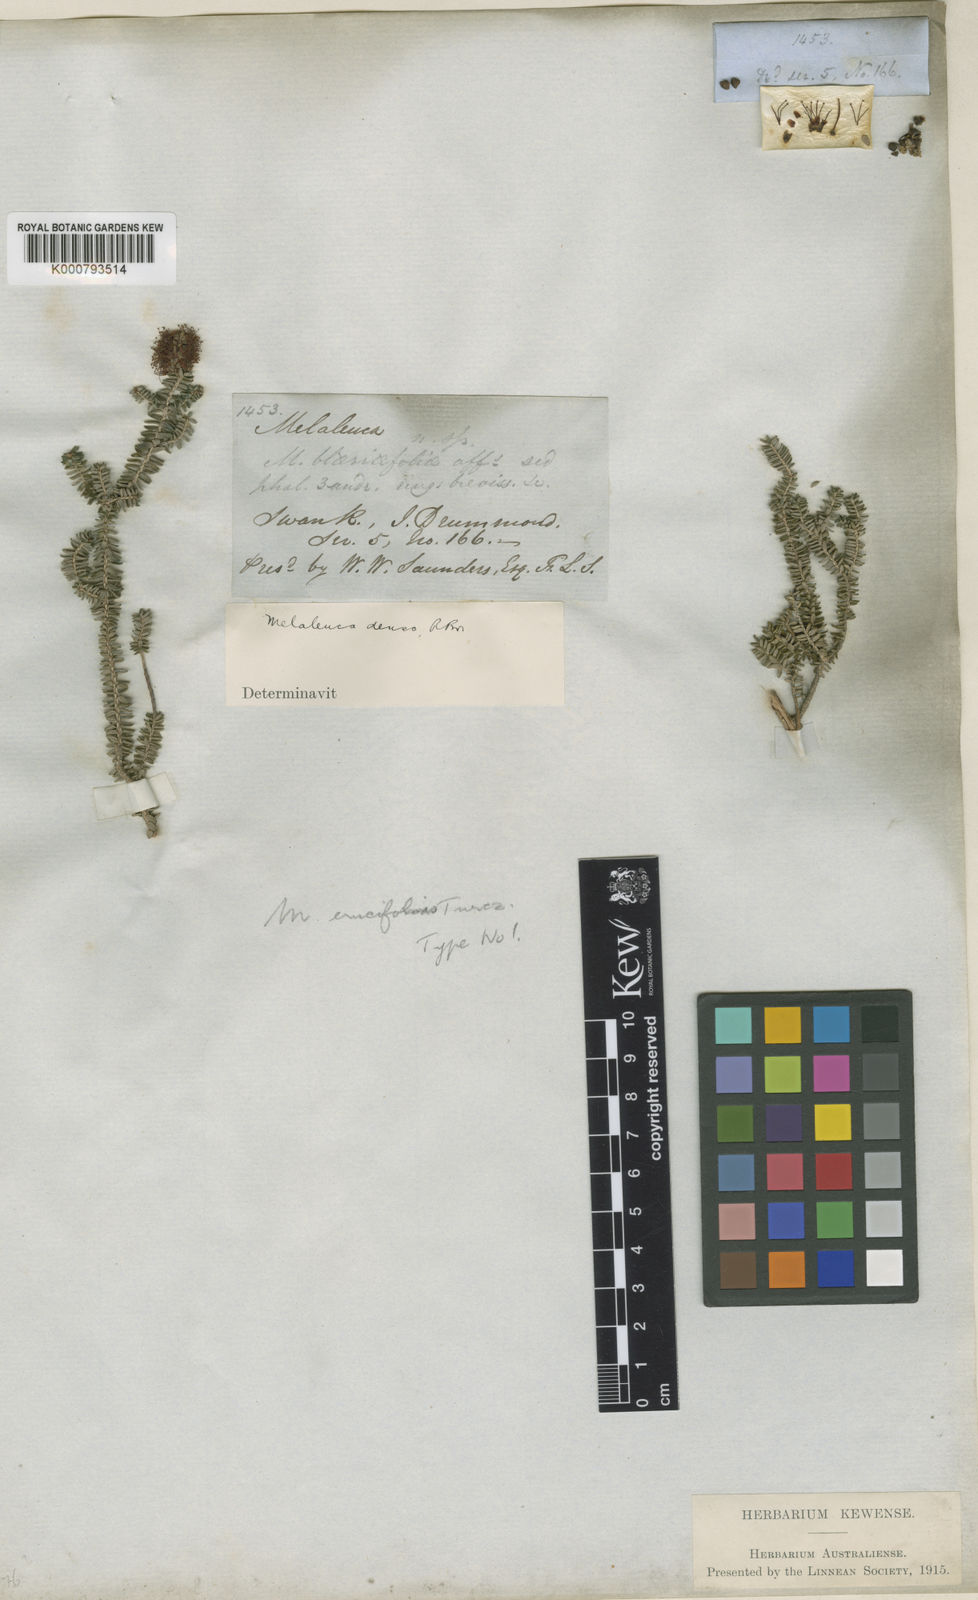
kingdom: Plantae
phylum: Tracheophyta
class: Magnoliopsida
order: Myrtales
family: Myrtaceae
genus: Melaleuca
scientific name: Melaleuca blaeriifolia
